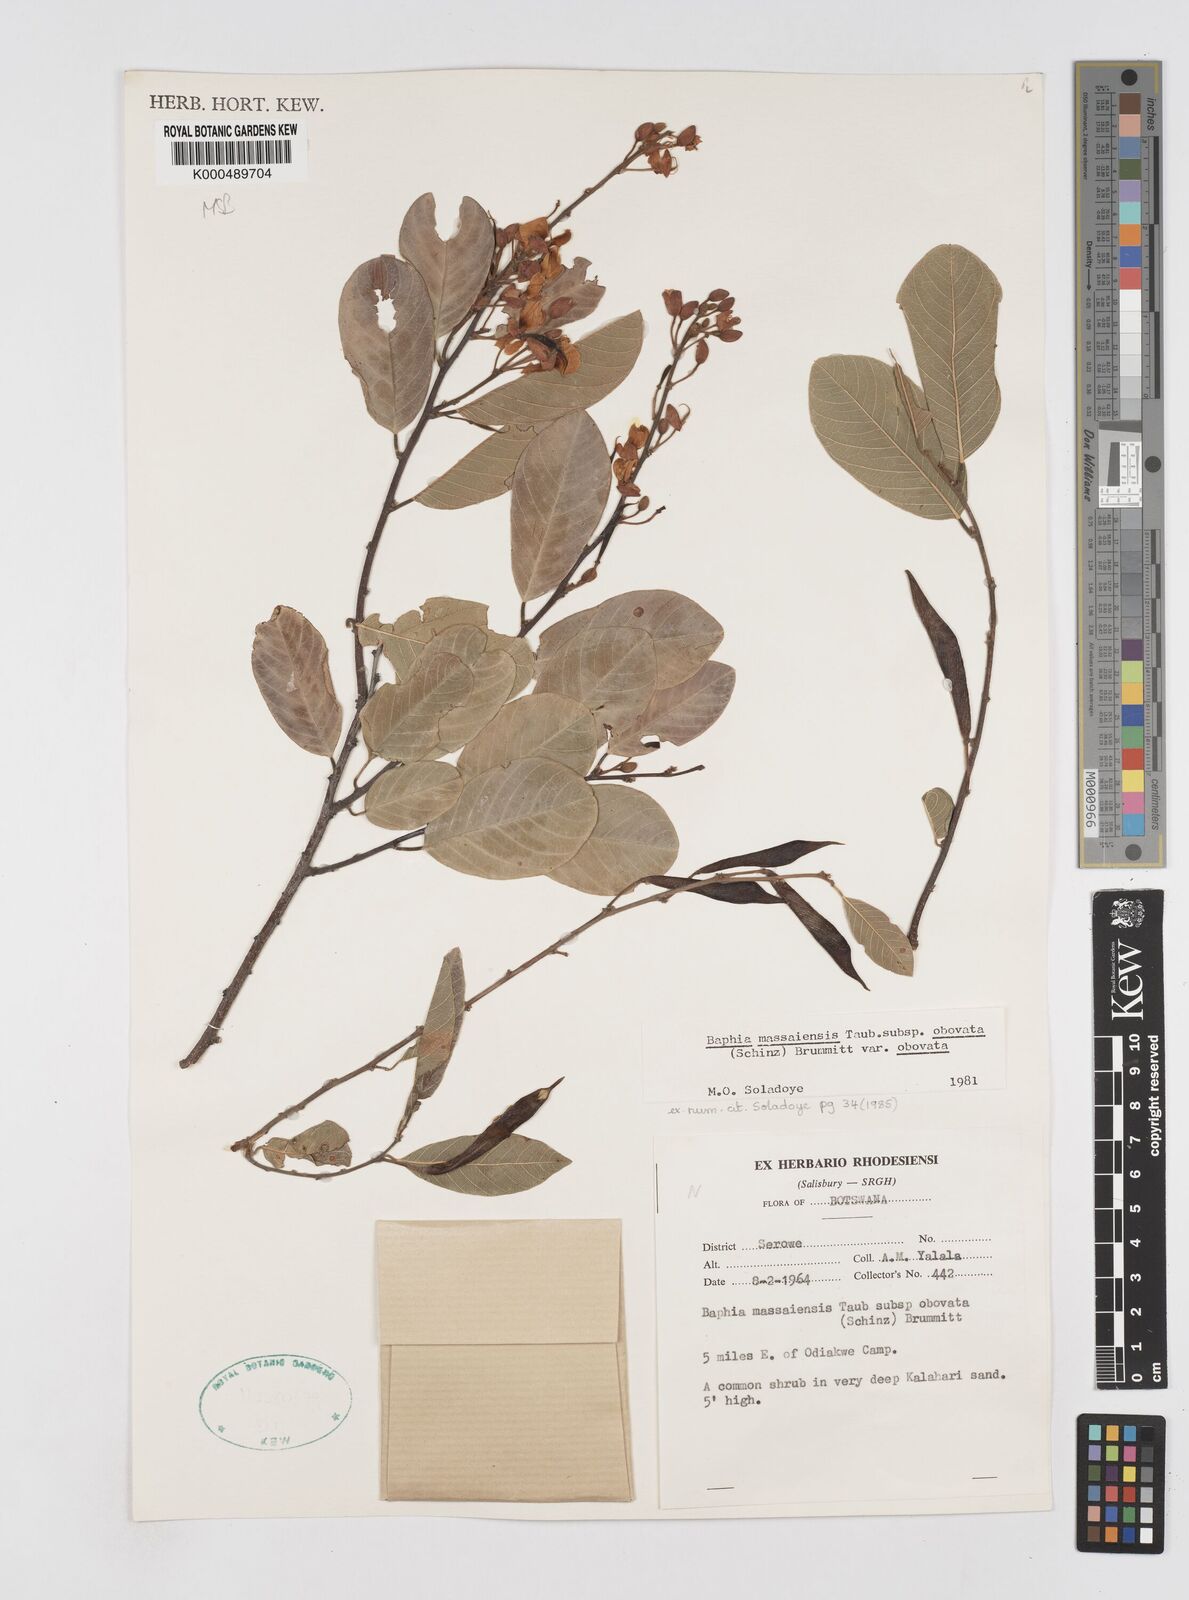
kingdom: Plantae
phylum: Tracheophyta
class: Magnoliopsida
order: Fabales
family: Fabaceae
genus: Baphia
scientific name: Baphia massaiensis
